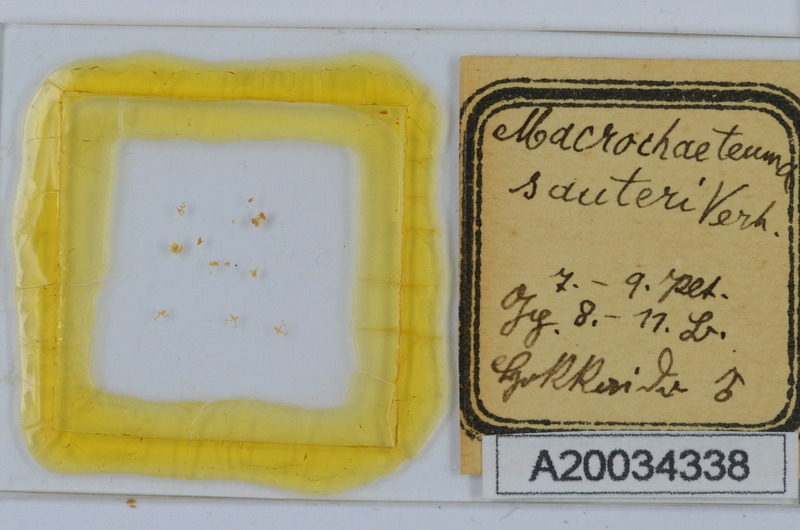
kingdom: Animalia
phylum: Arthropoda
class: Diplopoda
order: Chordeumatida
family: Macrochaeteumatidae
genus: Macrochaeteuma
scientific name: Macrochaeteuma sauteri
